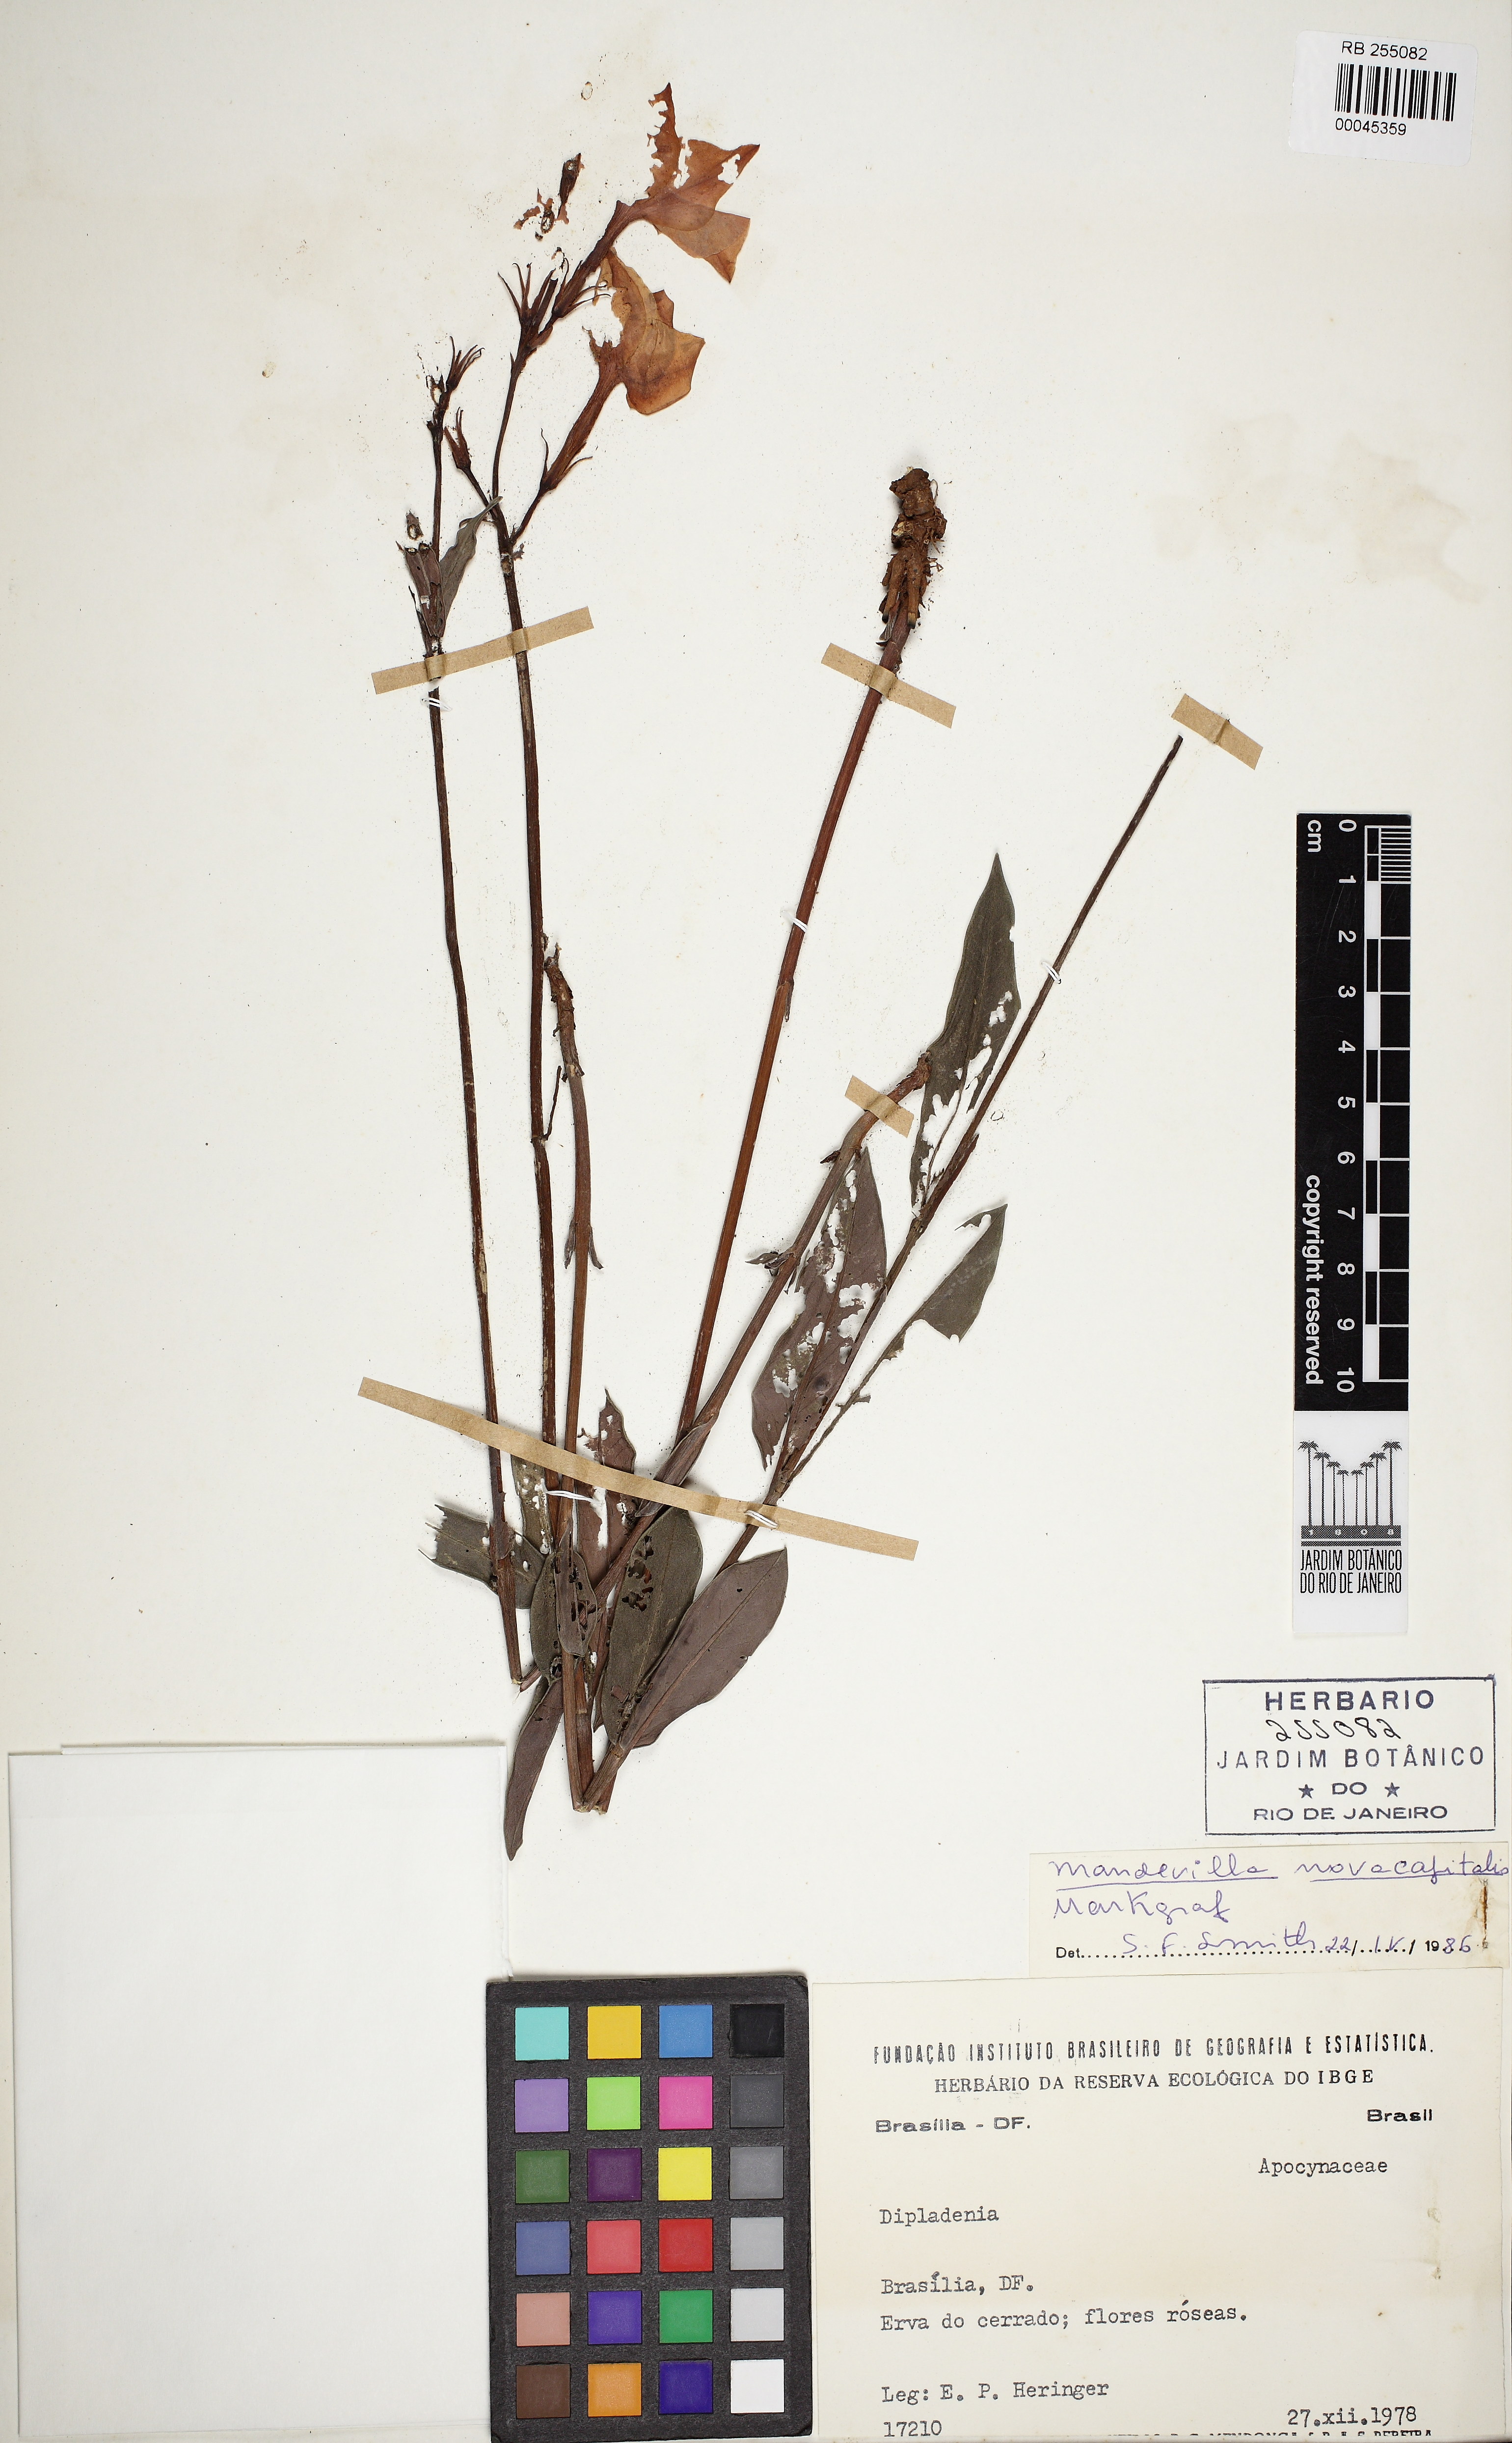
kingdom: Plantae
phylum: Tracheophyta
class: Magnoliopsida
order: Gentianales
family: Apocynaceae
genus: Mandevilla
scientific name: Mandevilla novocapitalis
